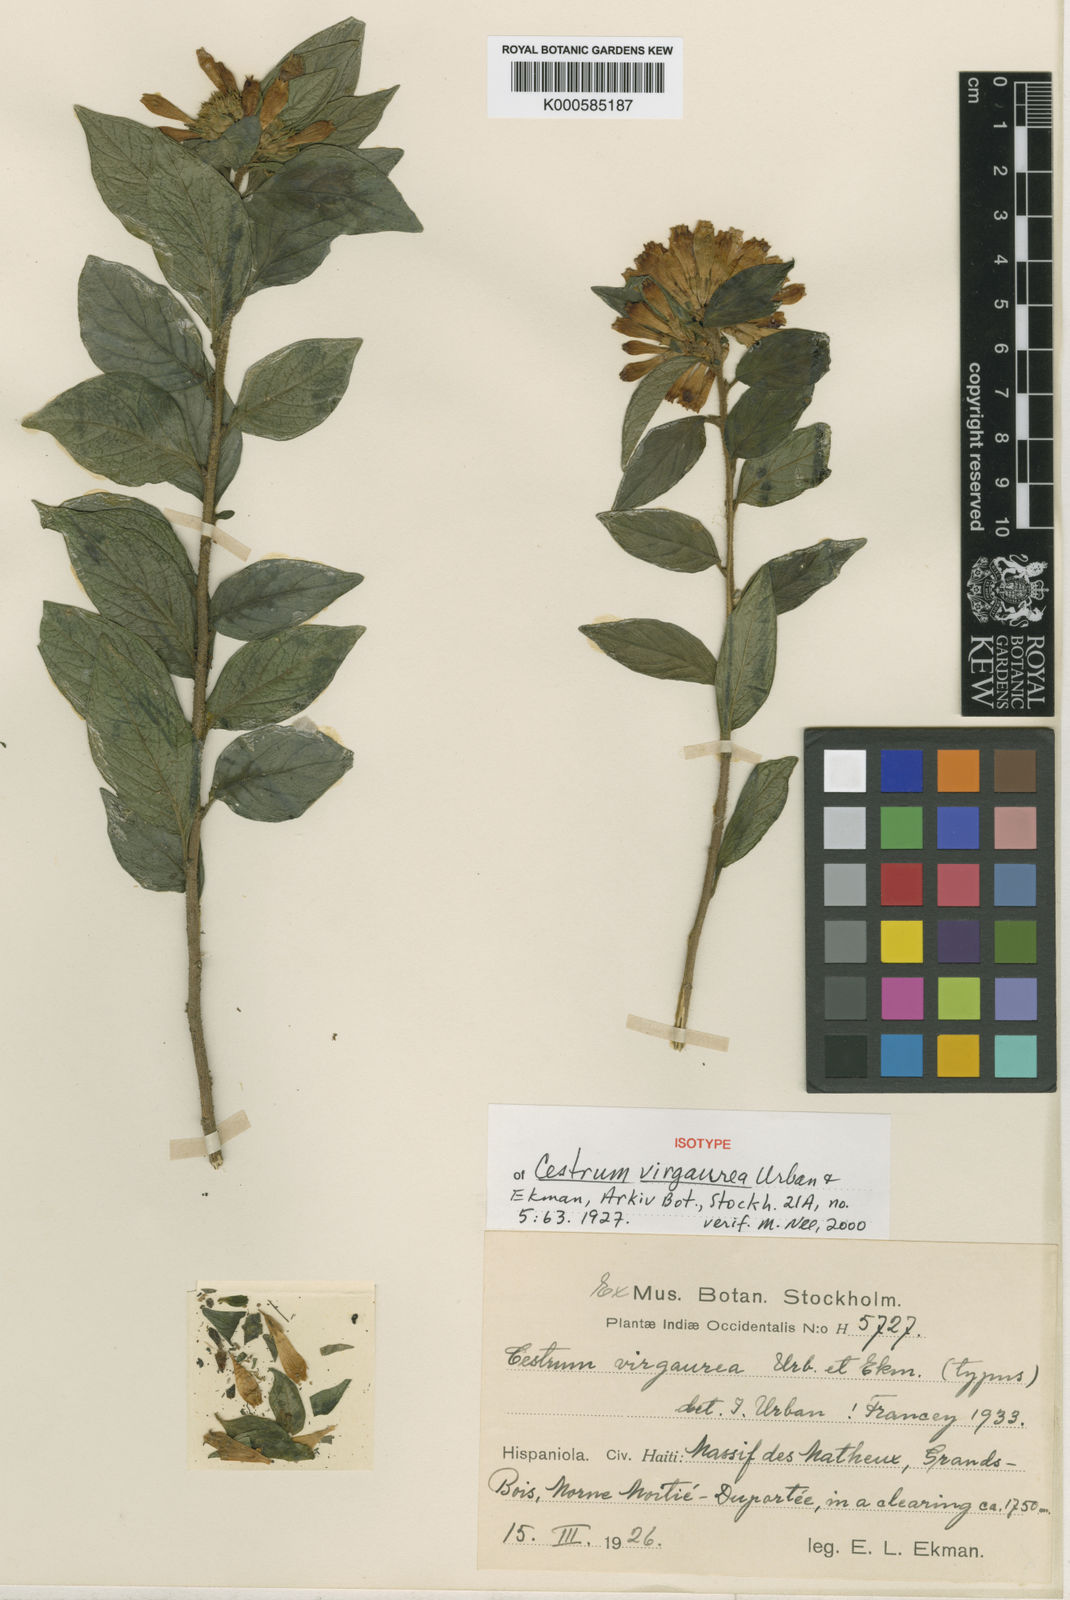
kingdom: Plantae
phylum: Tracheophyta
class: Magnoliopsida
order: Solanales
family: Solanaceae
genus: Cestrum
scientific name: Cestrum virgaurea
